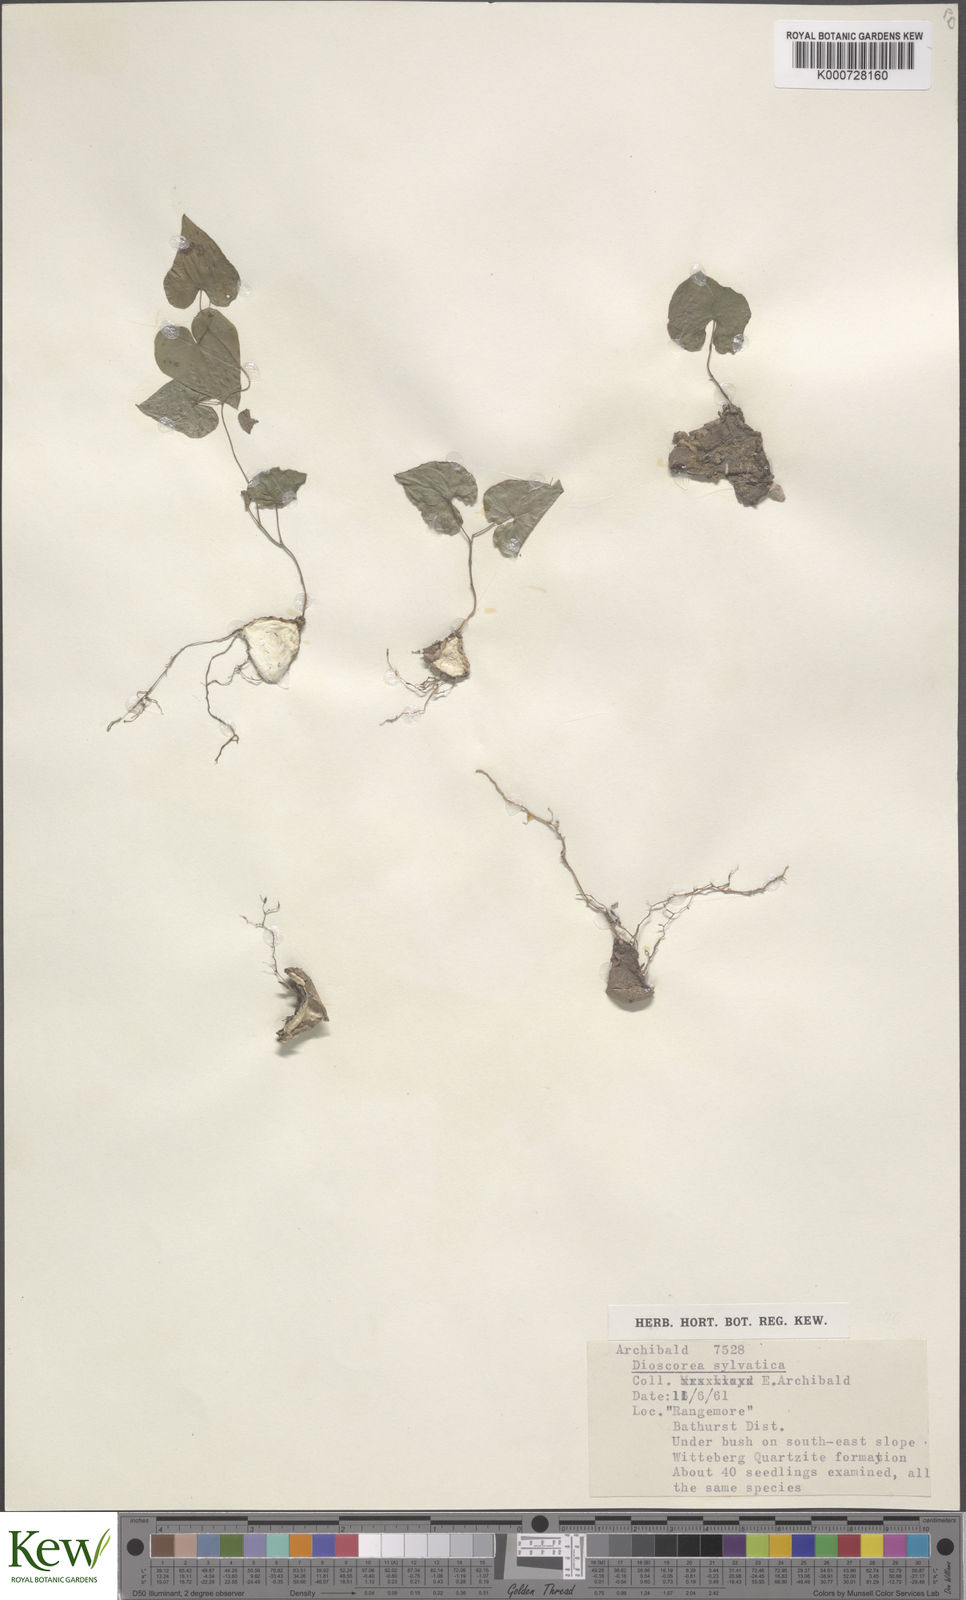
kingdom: Plantae
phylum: Tracheophyta
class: Liliopsida
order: Dioscoreales
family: Dioscoreaceae
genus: Dioscorea
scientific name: Dioscorea sylvatica
